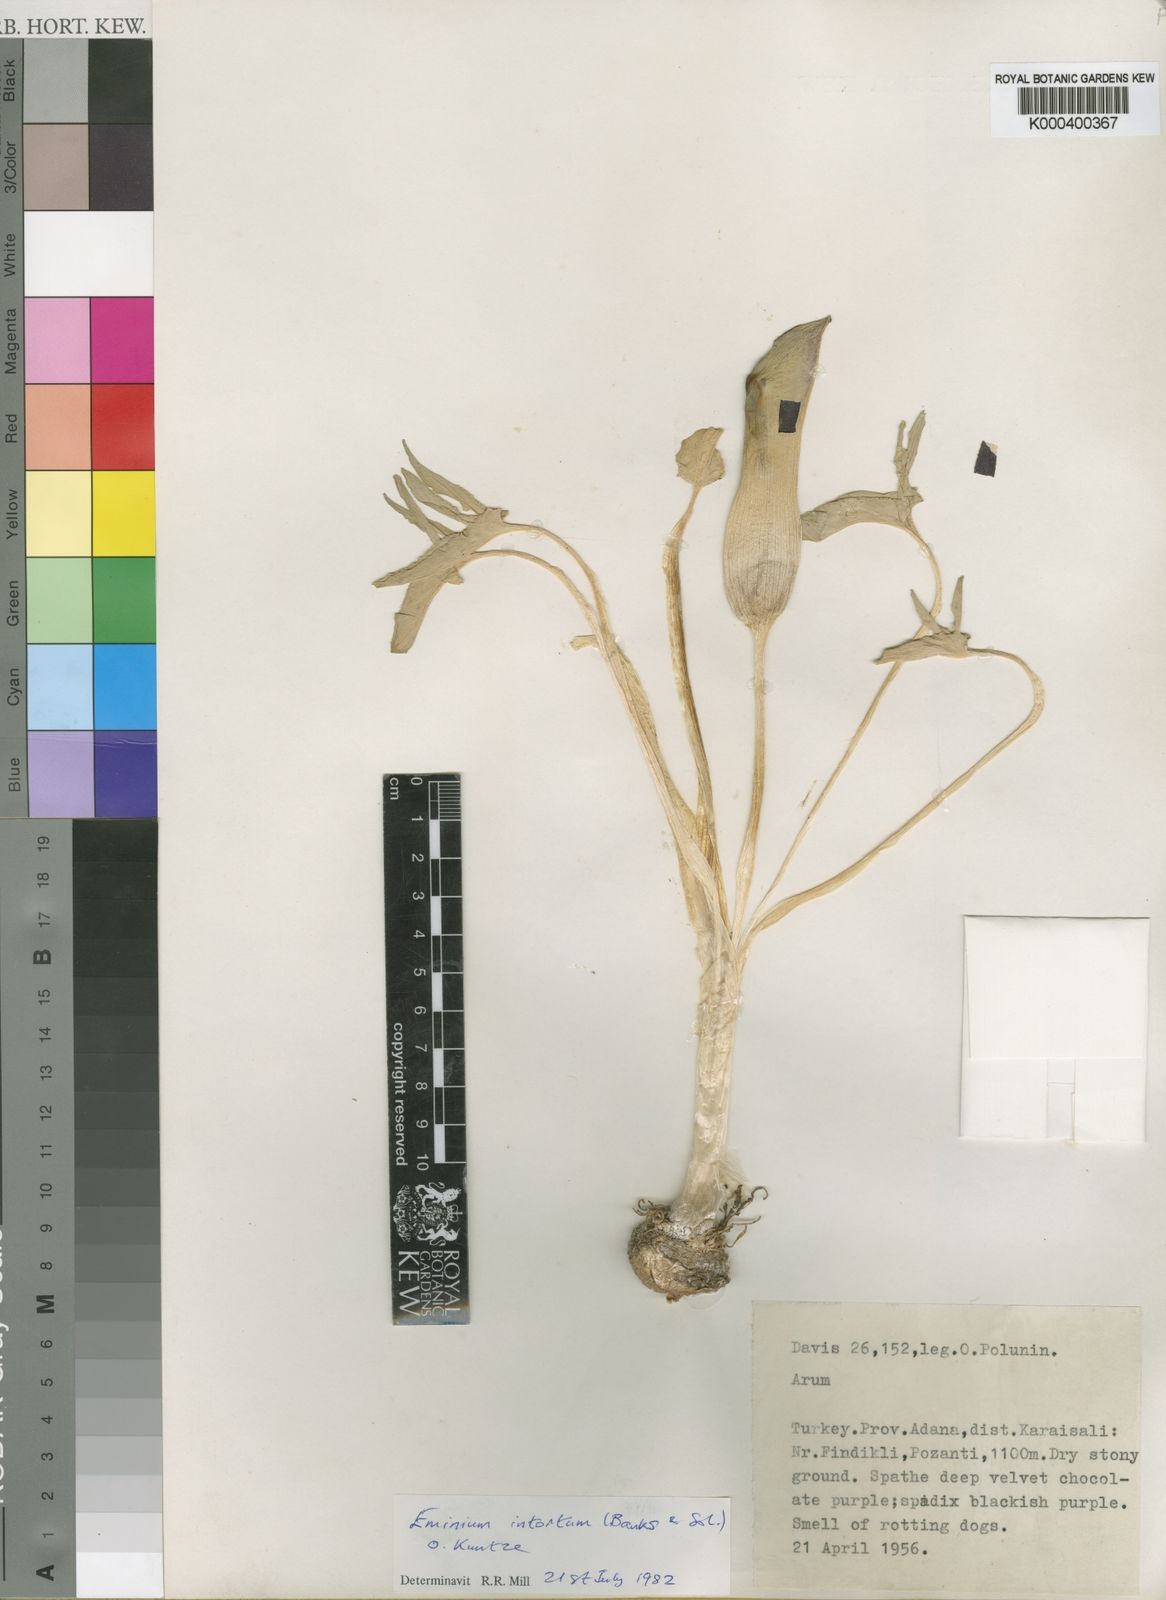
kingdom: Plantae
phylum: Tracheophyta
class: Liliopsida
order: Alismatales
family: Araceae
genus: Eminium
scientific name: Eminium intortum
